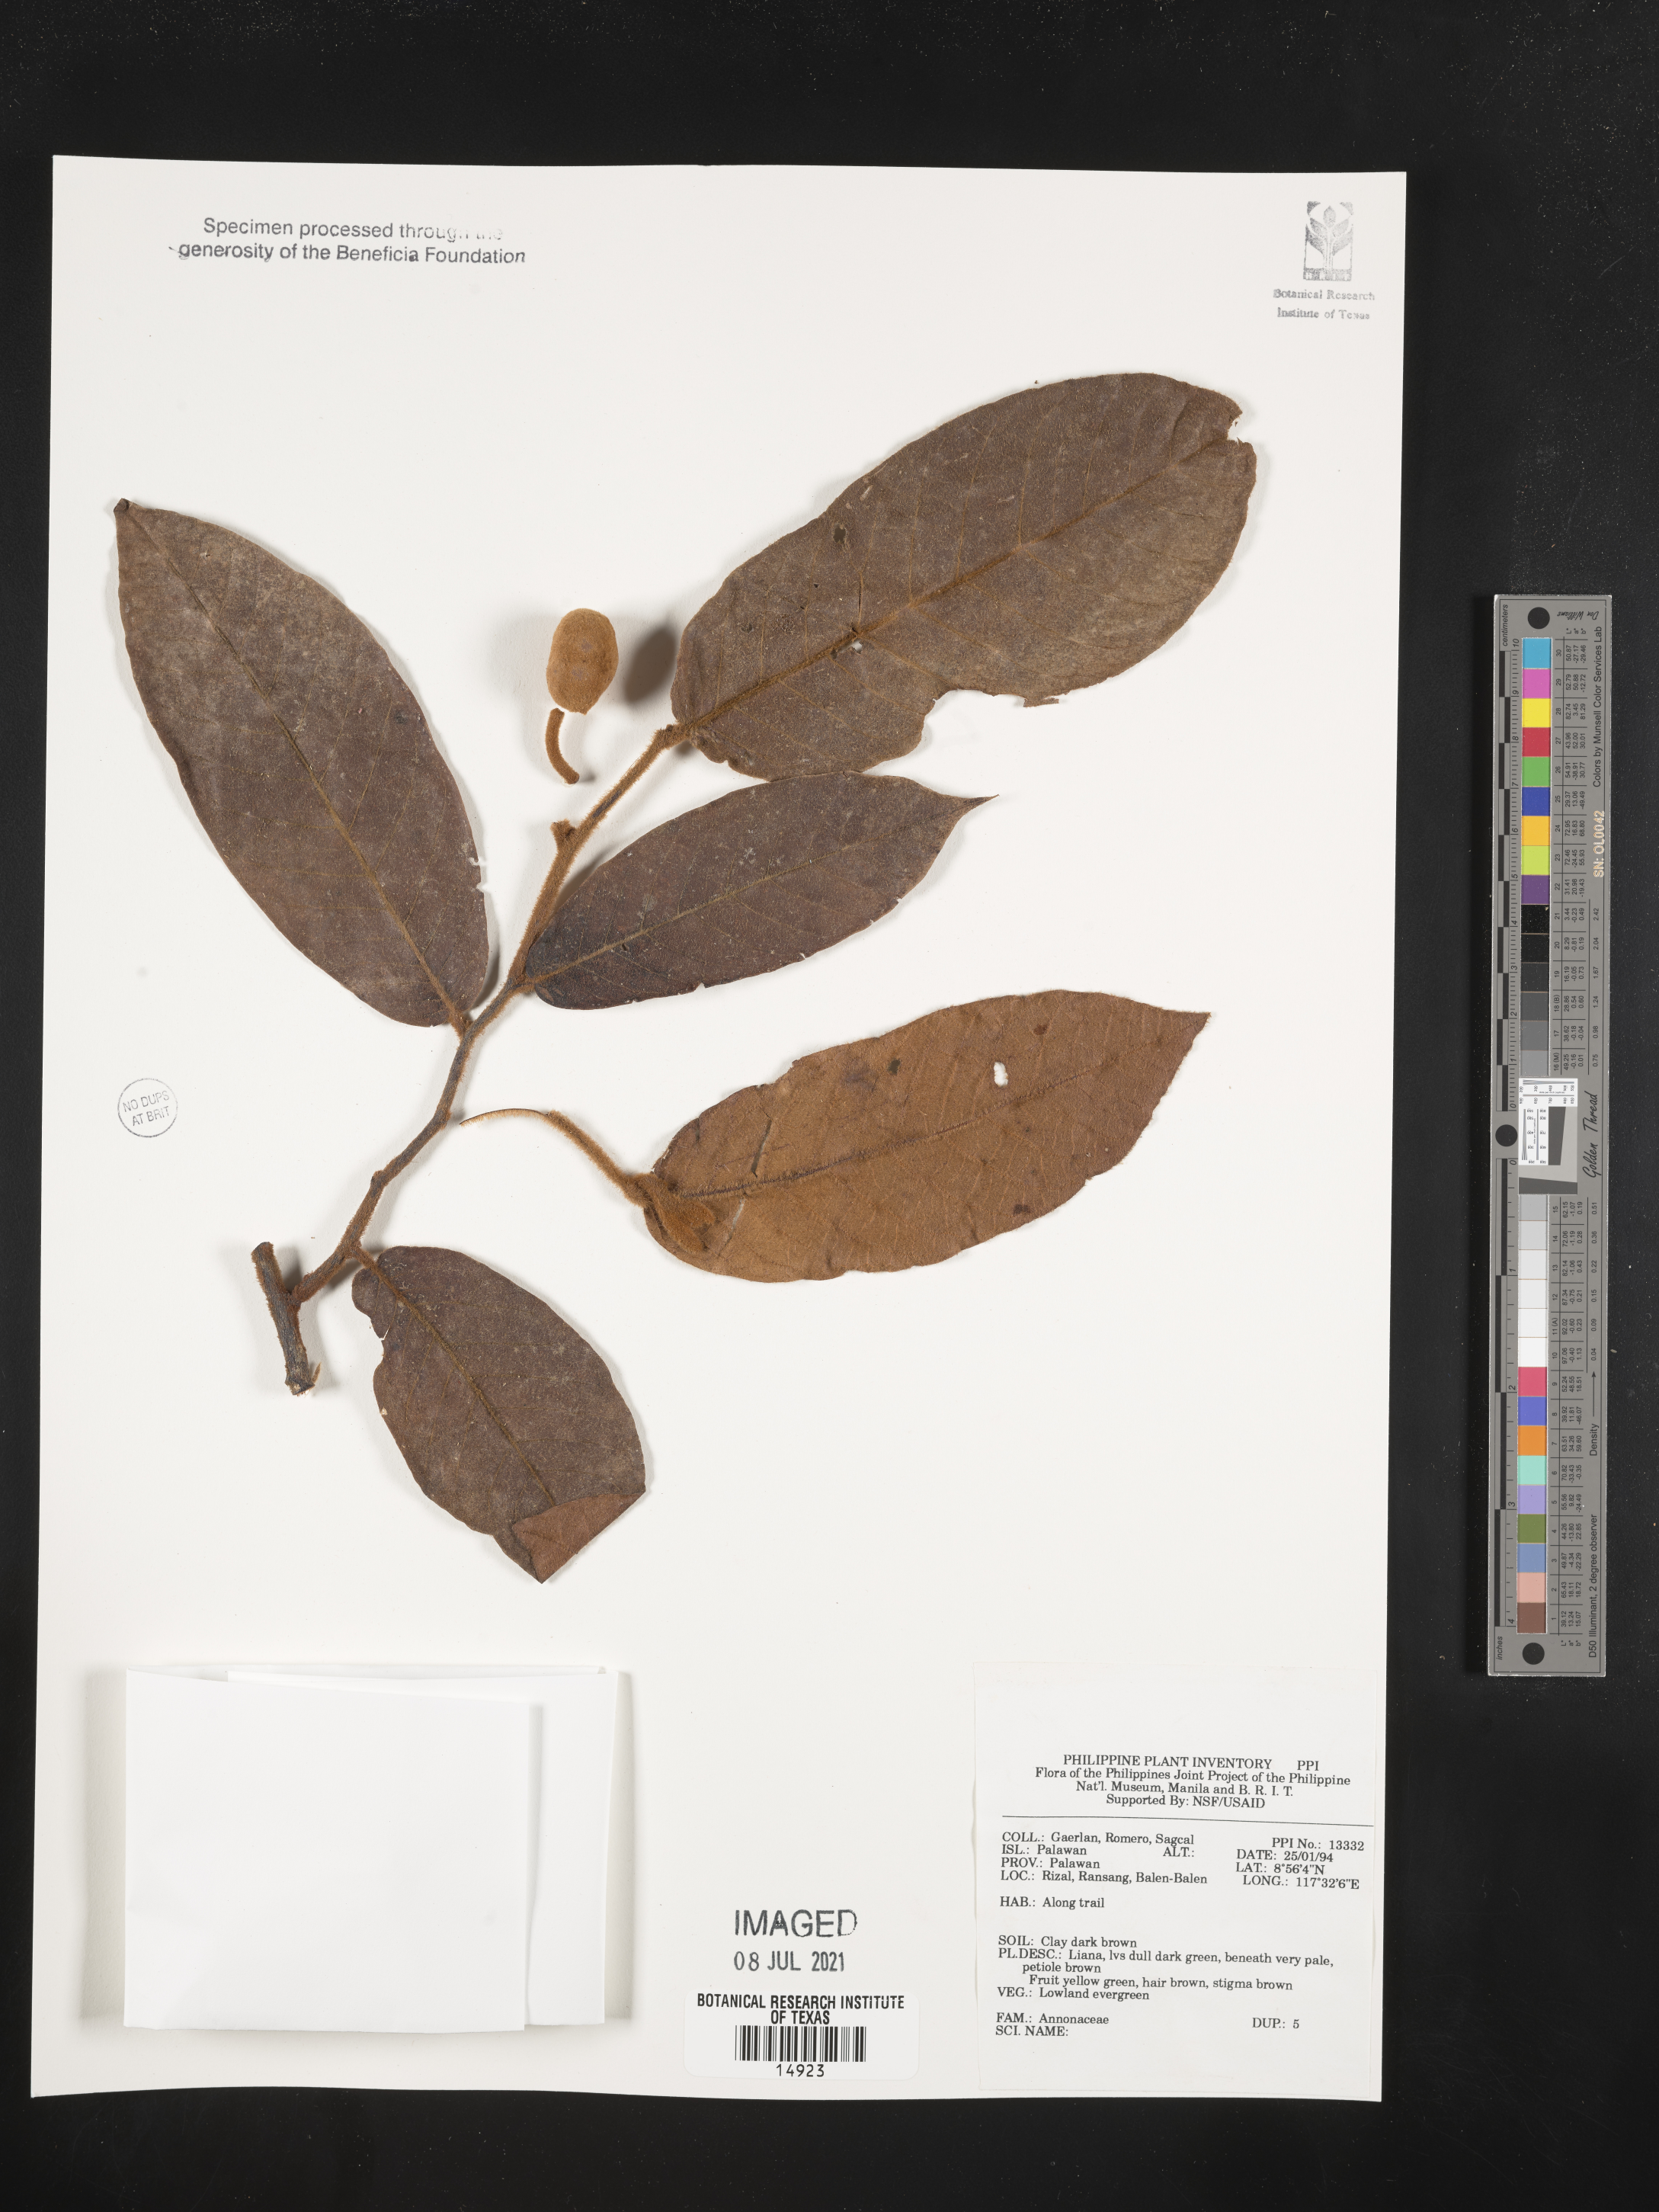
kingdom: Plantae
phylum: Tracheophyta
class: Magnoliopsida
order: Magnoliales
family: Annonaceae
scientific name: Annonaceae
